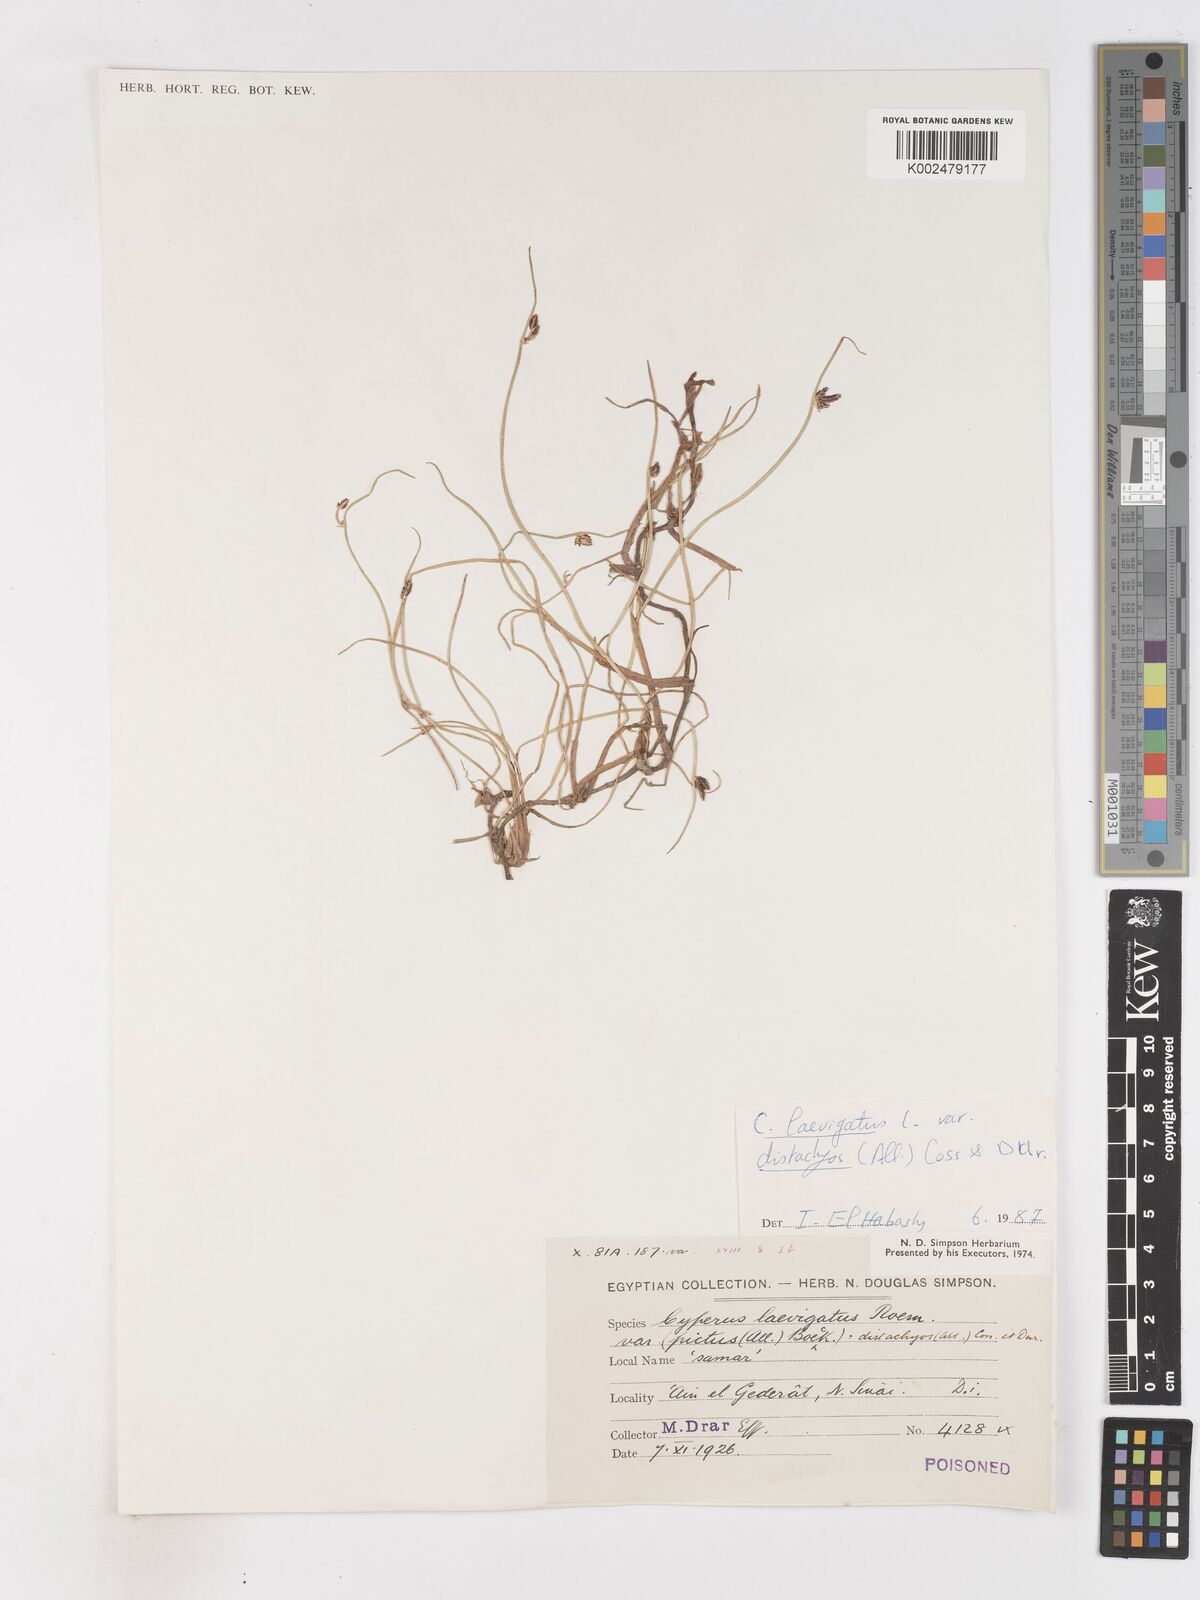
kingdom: Plantae
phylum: Tracheophyta
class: Liliopsida
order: Poales
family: Cyperaceae
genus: Cyperus
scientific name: Cyperus laevigatus
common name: Smooth flat sedge
